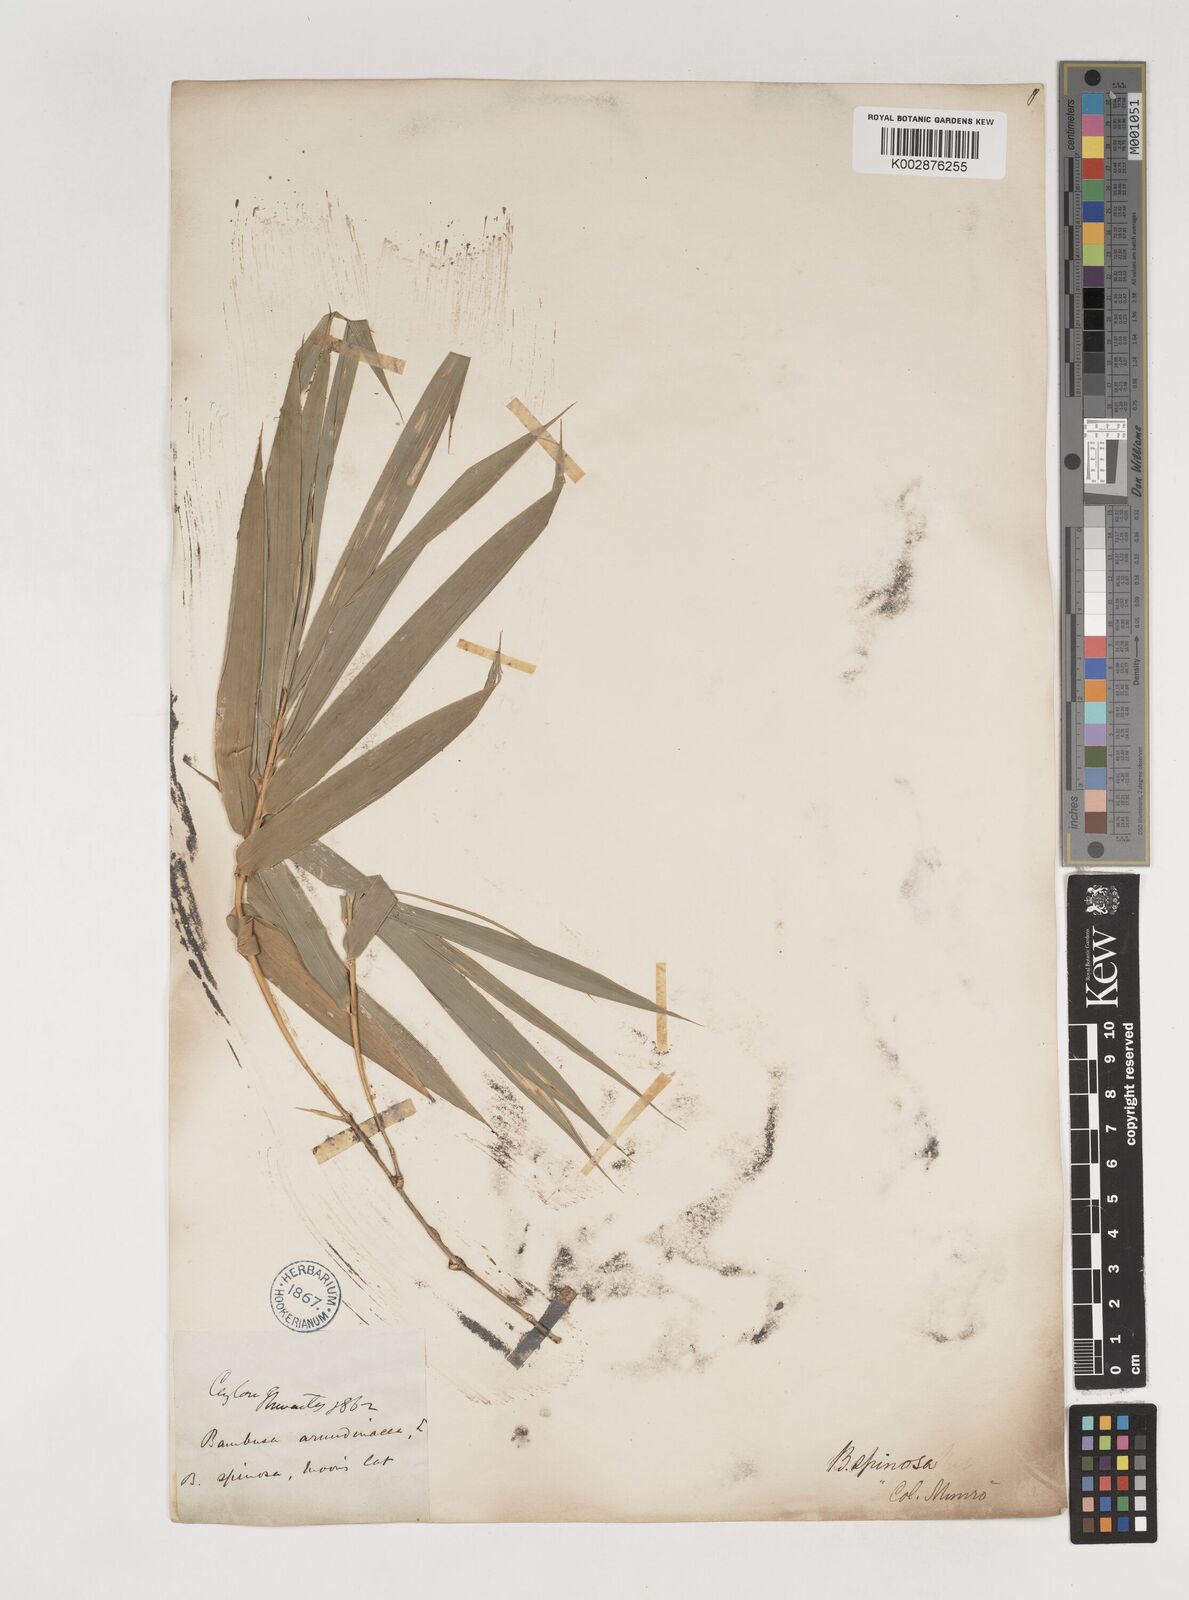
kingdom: Plantae
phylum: Tracheophyta
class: Liliopsida
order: Poales
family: Poaceae
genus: Bambusa
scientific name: Bambusa bambos
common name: Indian thorny bamboo
